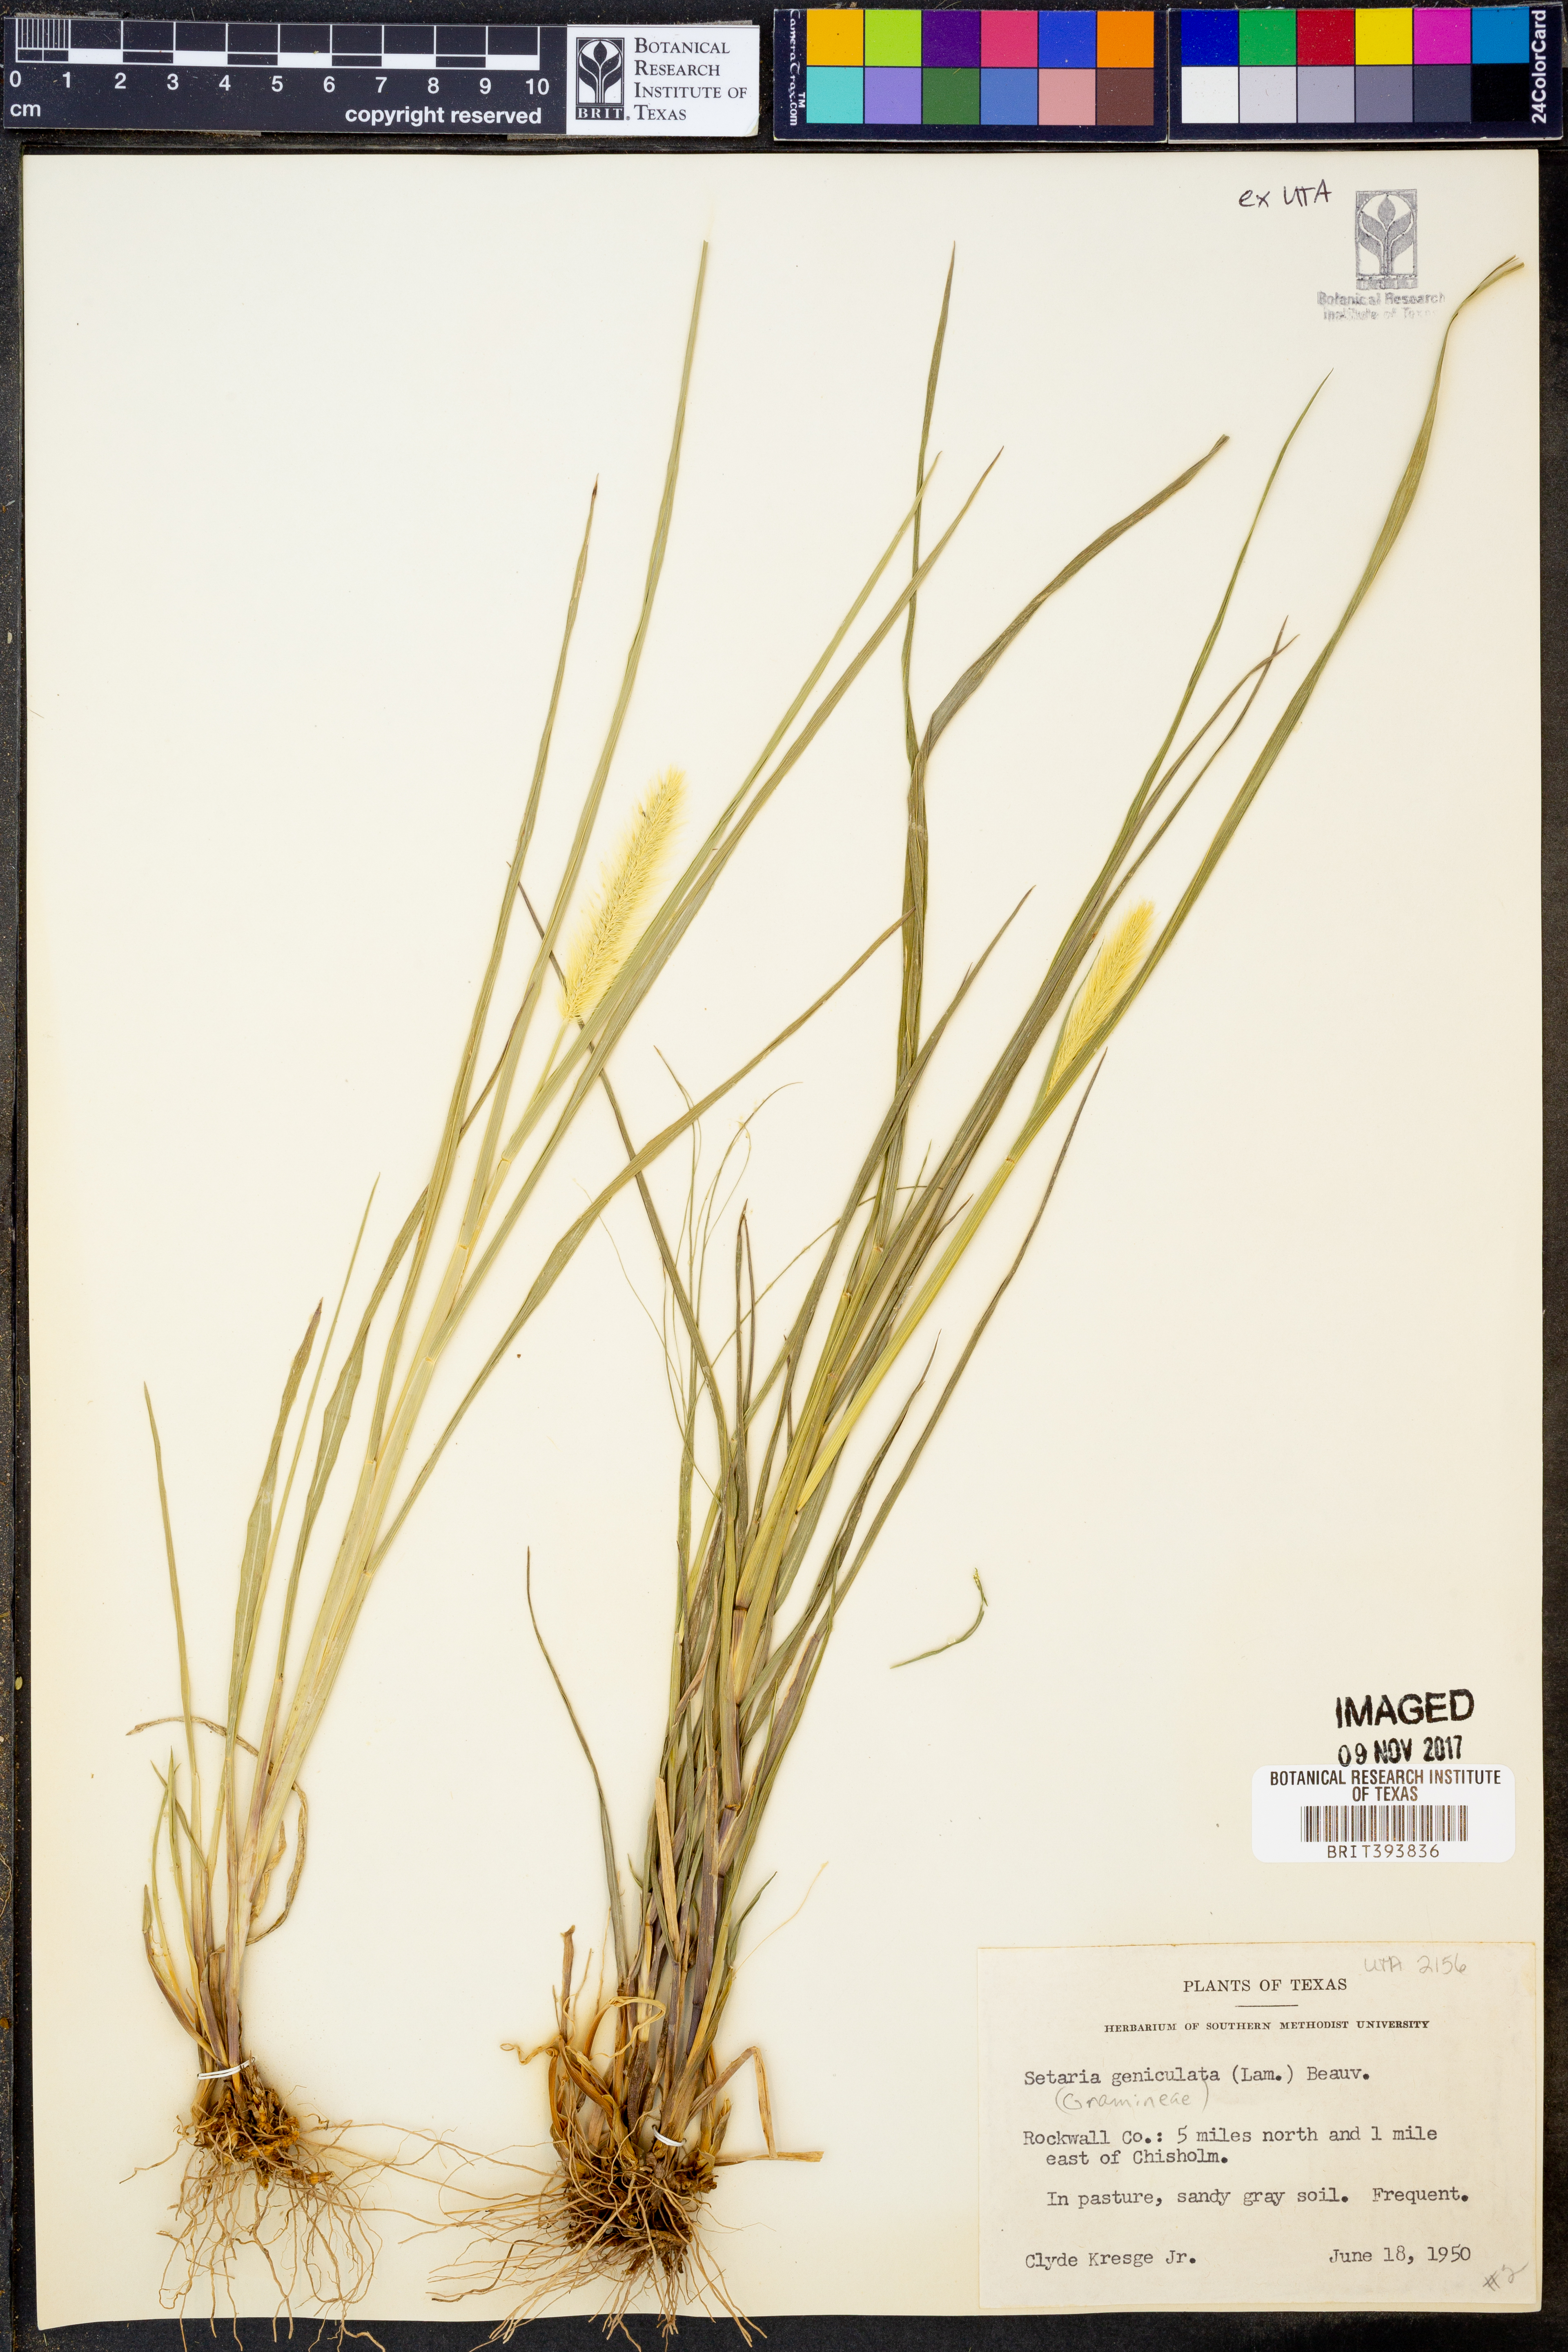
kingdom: Plantae
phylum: Tracheophyta
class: Liliopsida
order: Poales
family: Poaceae
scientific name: Poaceae
